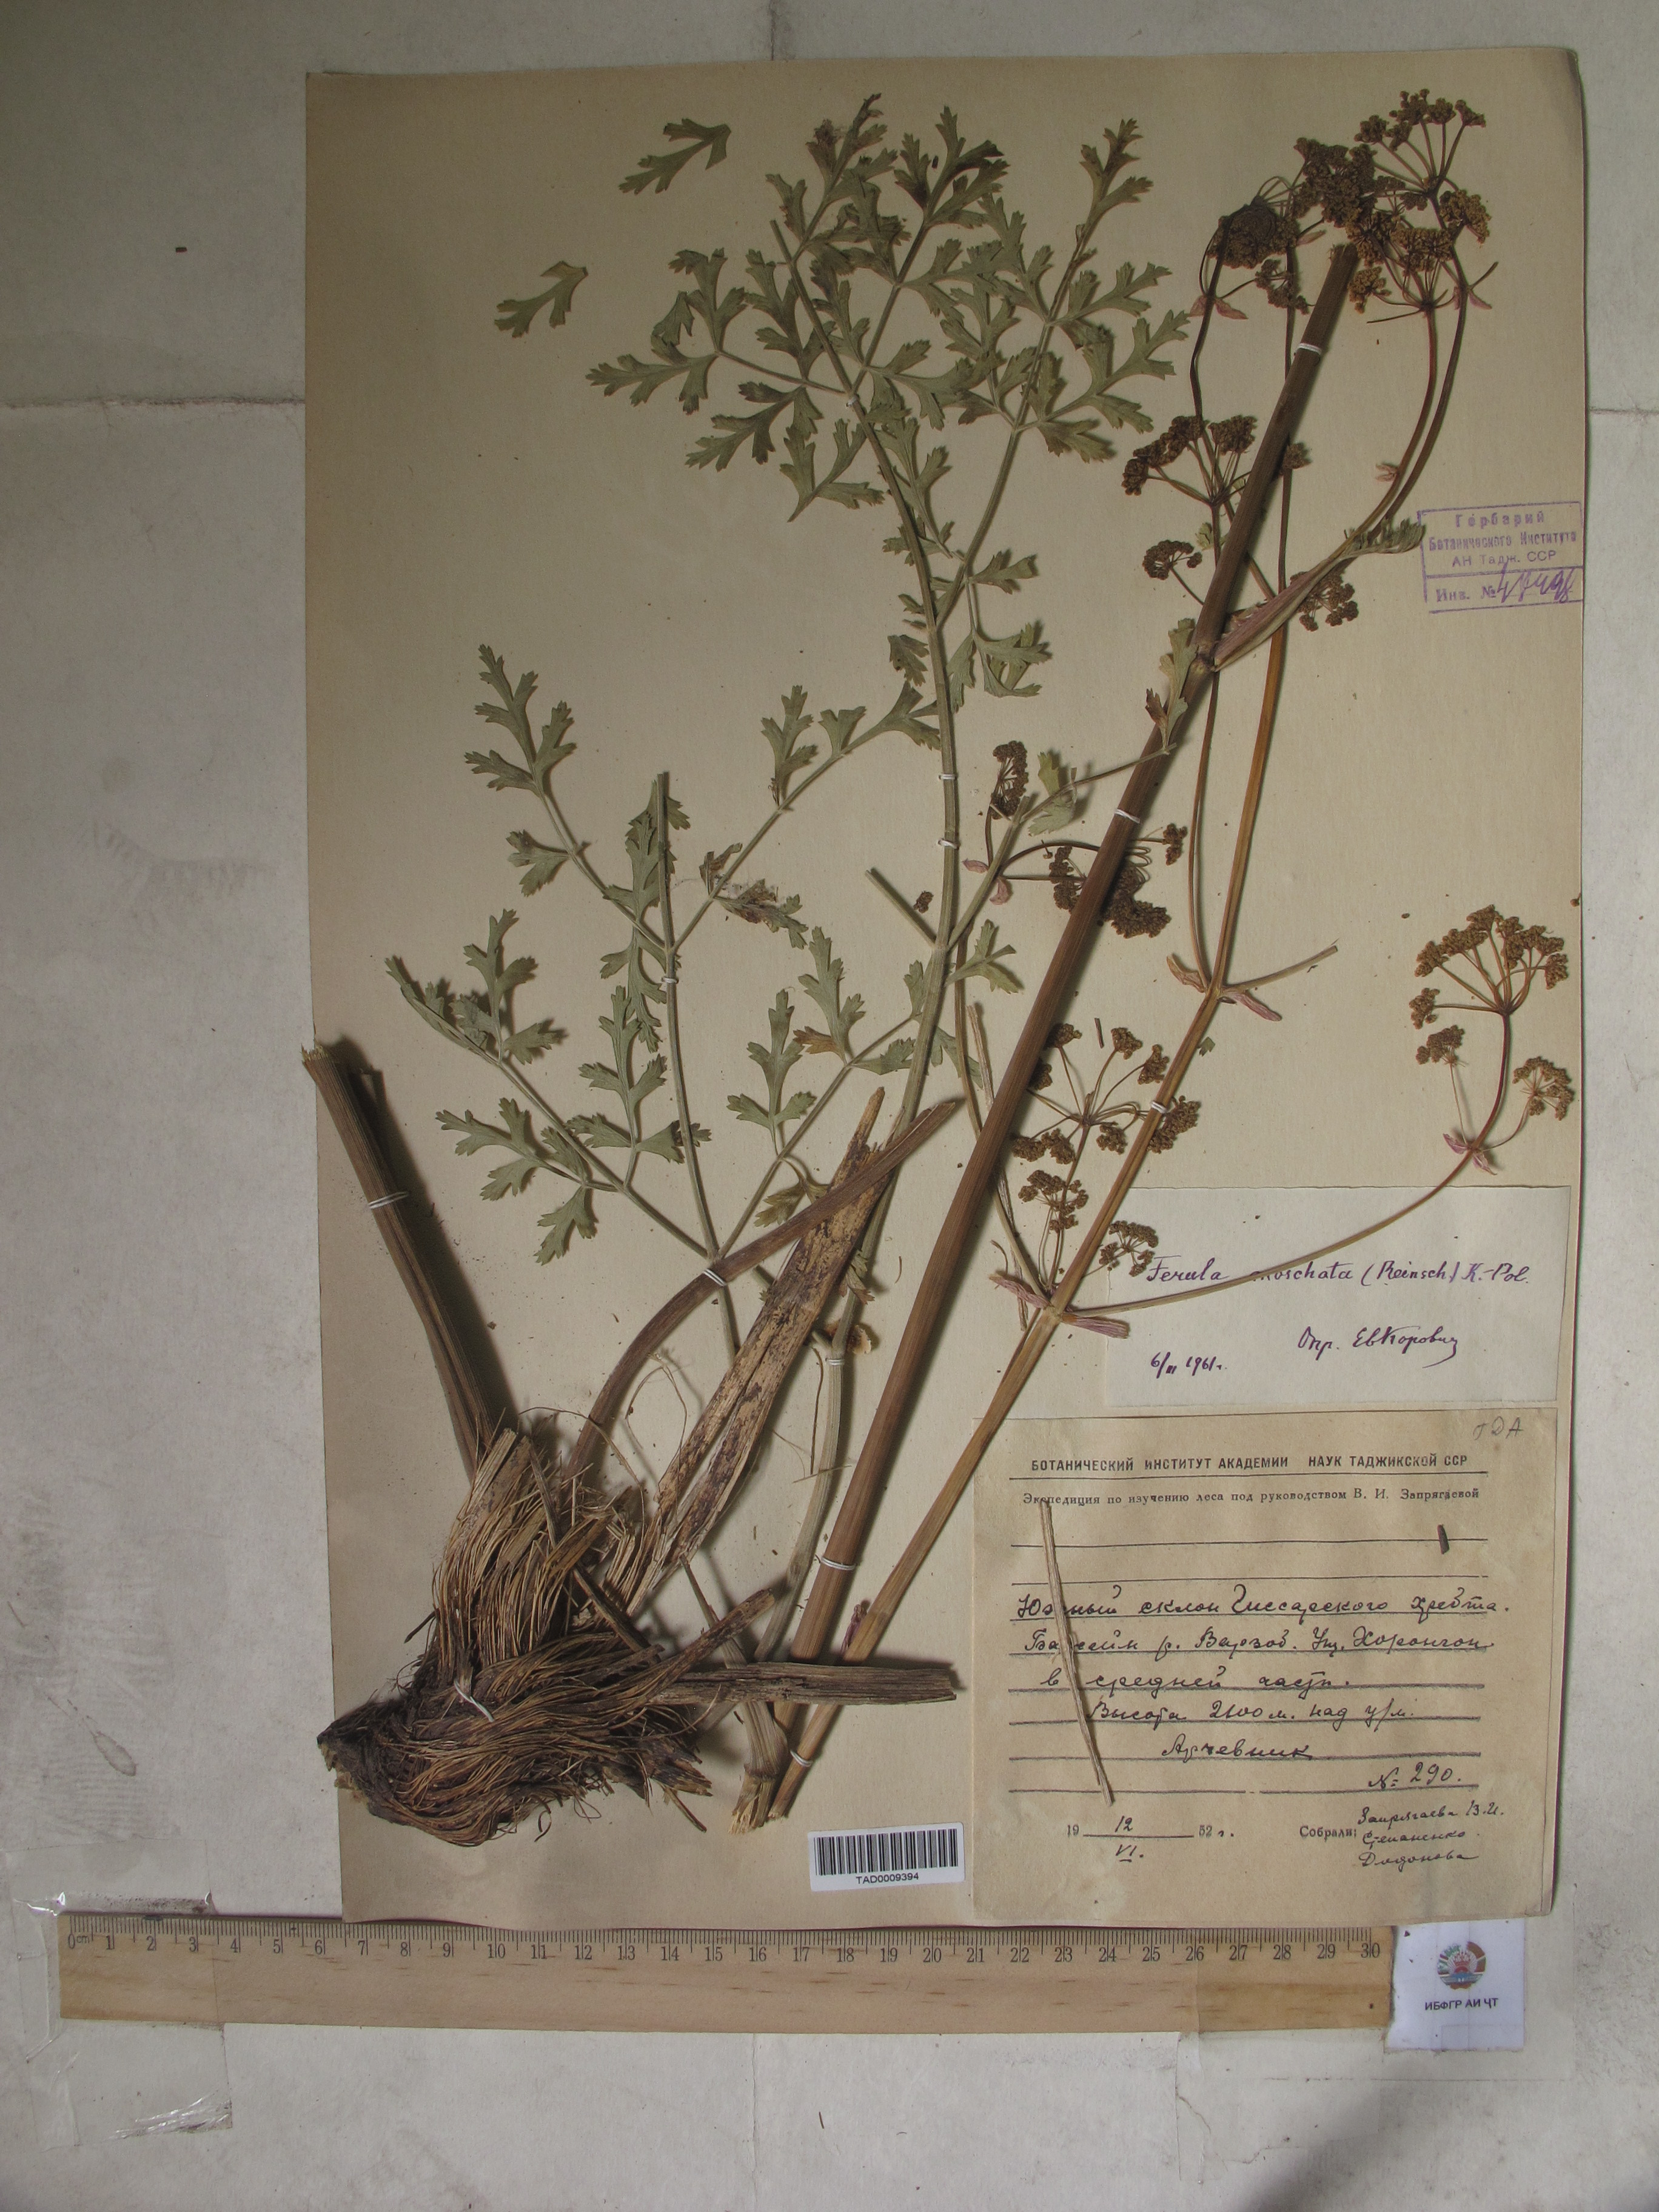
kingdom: Plantae
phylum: Tracheophyta
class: Magnoliopsida
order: Apiales
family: Apiaceae
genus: Ferula
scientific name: Ferula moschata
